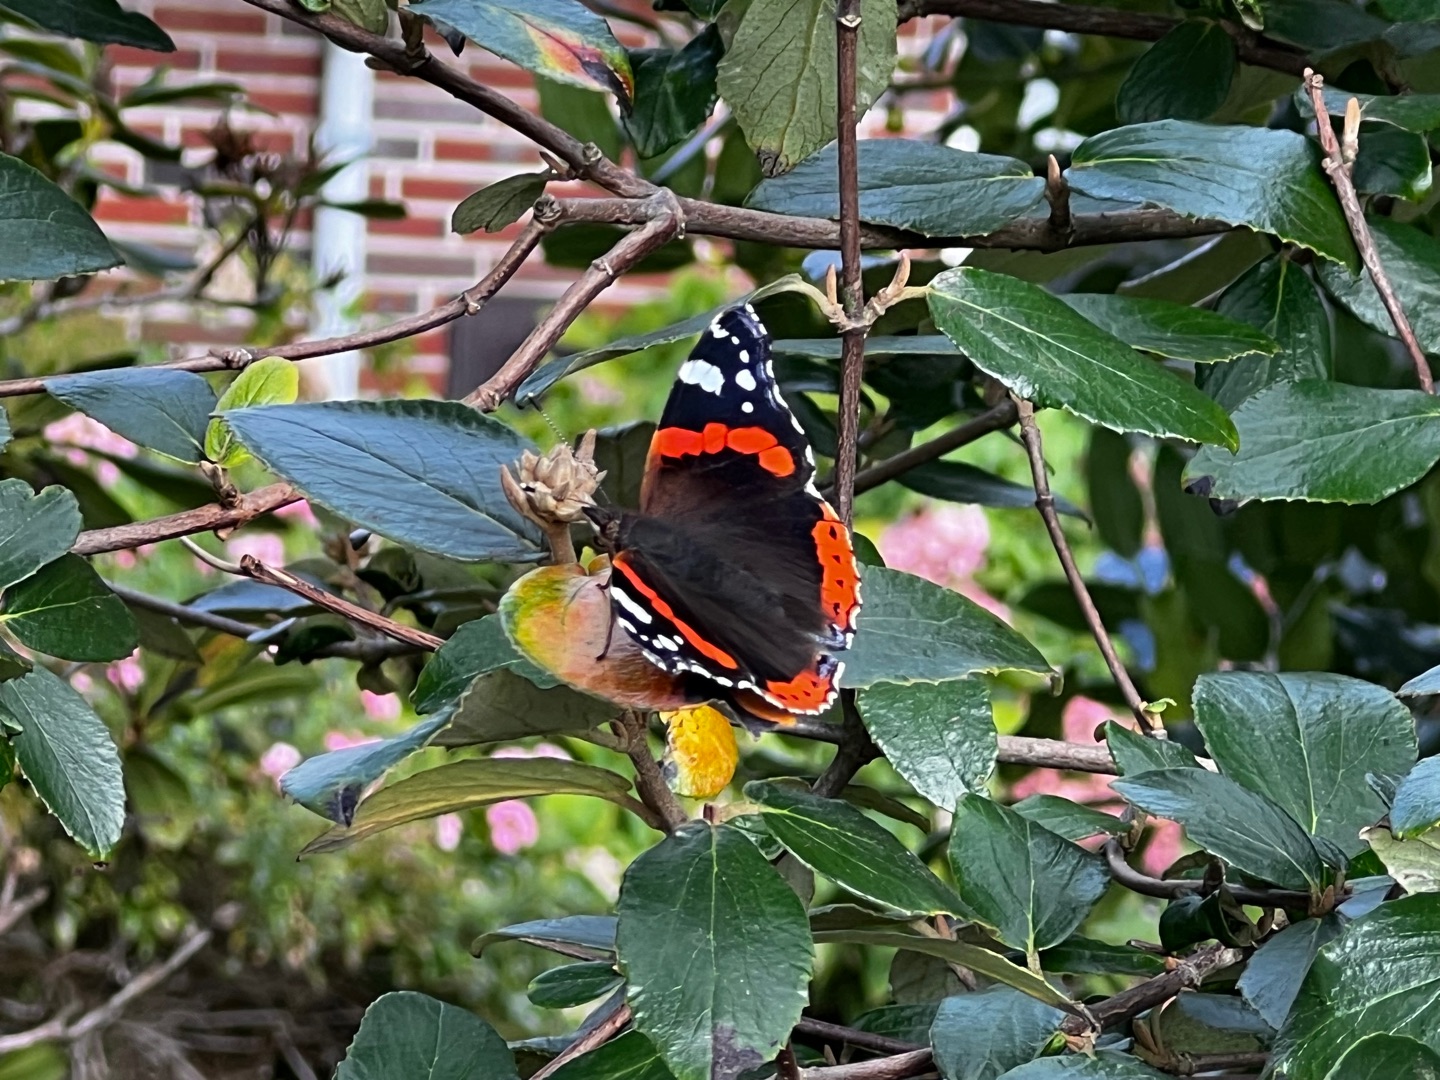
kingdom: Animalia
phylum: Arthropoda
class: Insecta
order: Lepidoptera
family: Nymphalidae
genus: Vanessa
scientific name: Vanessa atalanta
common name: Admiral
